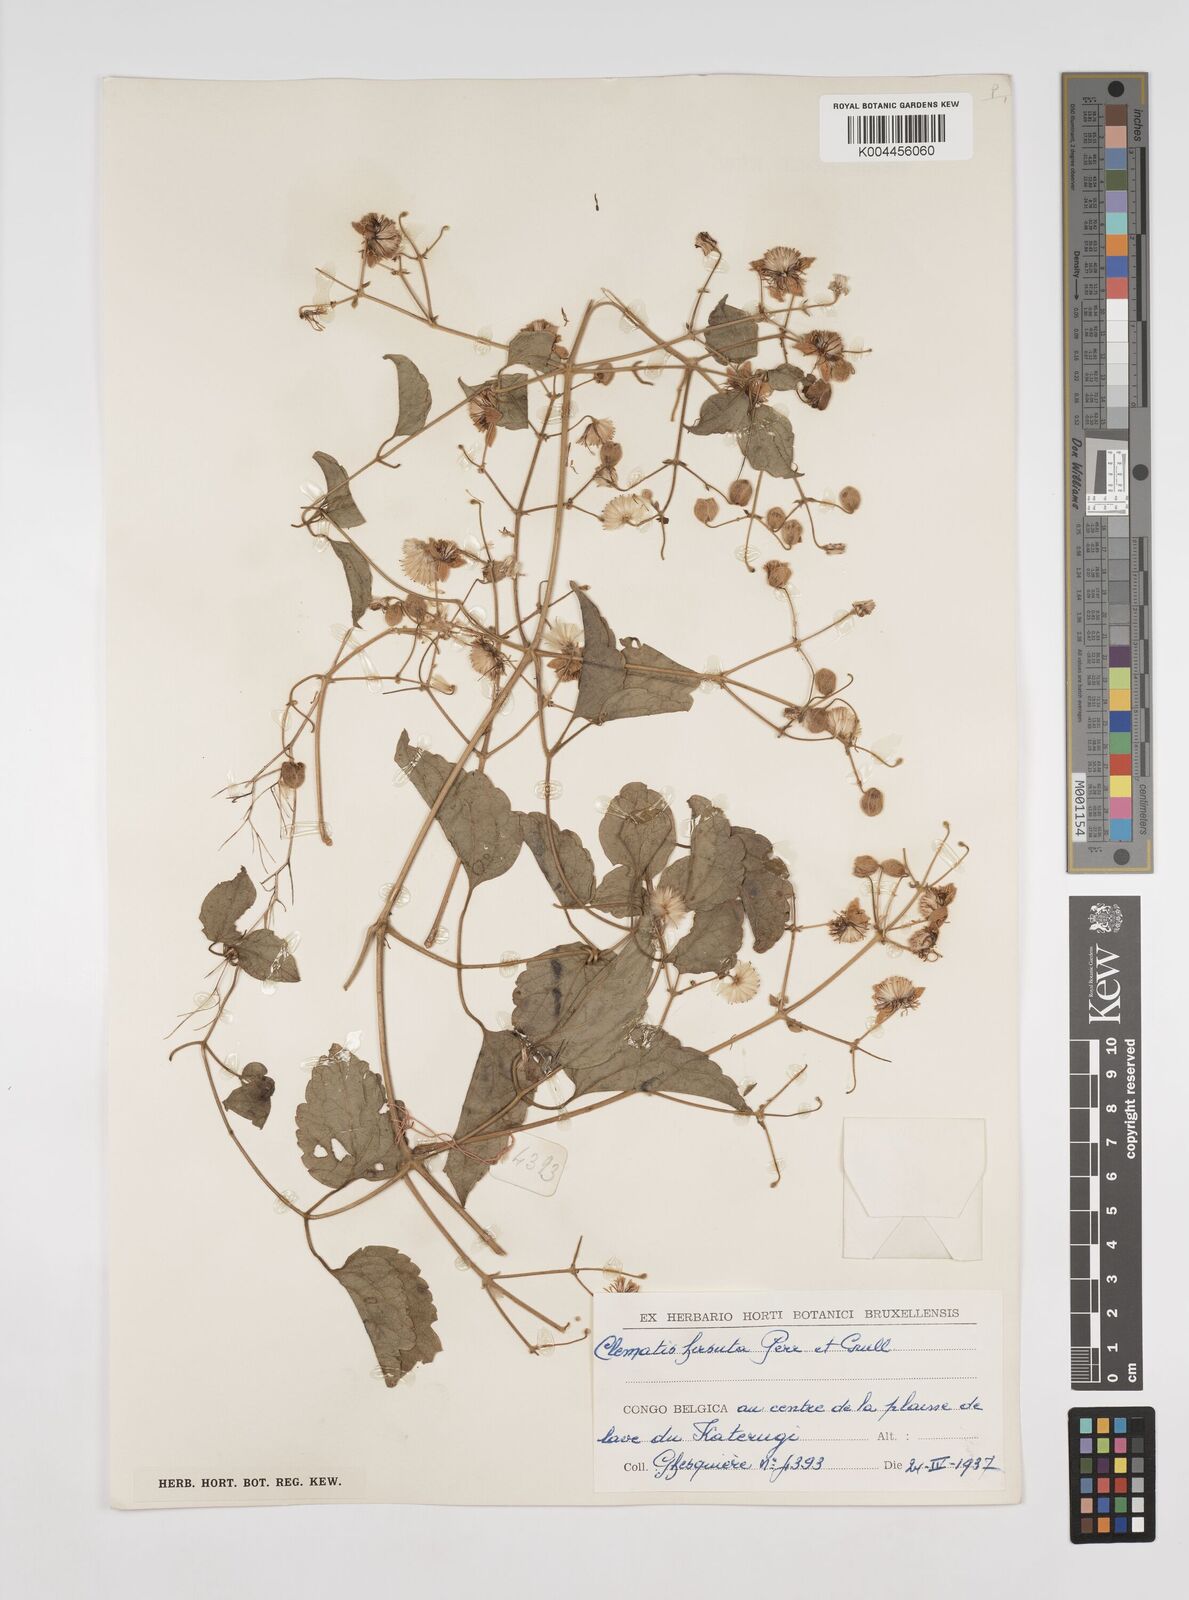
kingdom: Plantae
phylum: Tracheophyta
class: Magnoliopsida
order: Ranunculales
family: Ranunculaceae
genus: Clematis
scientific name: Clematis hirsuta
